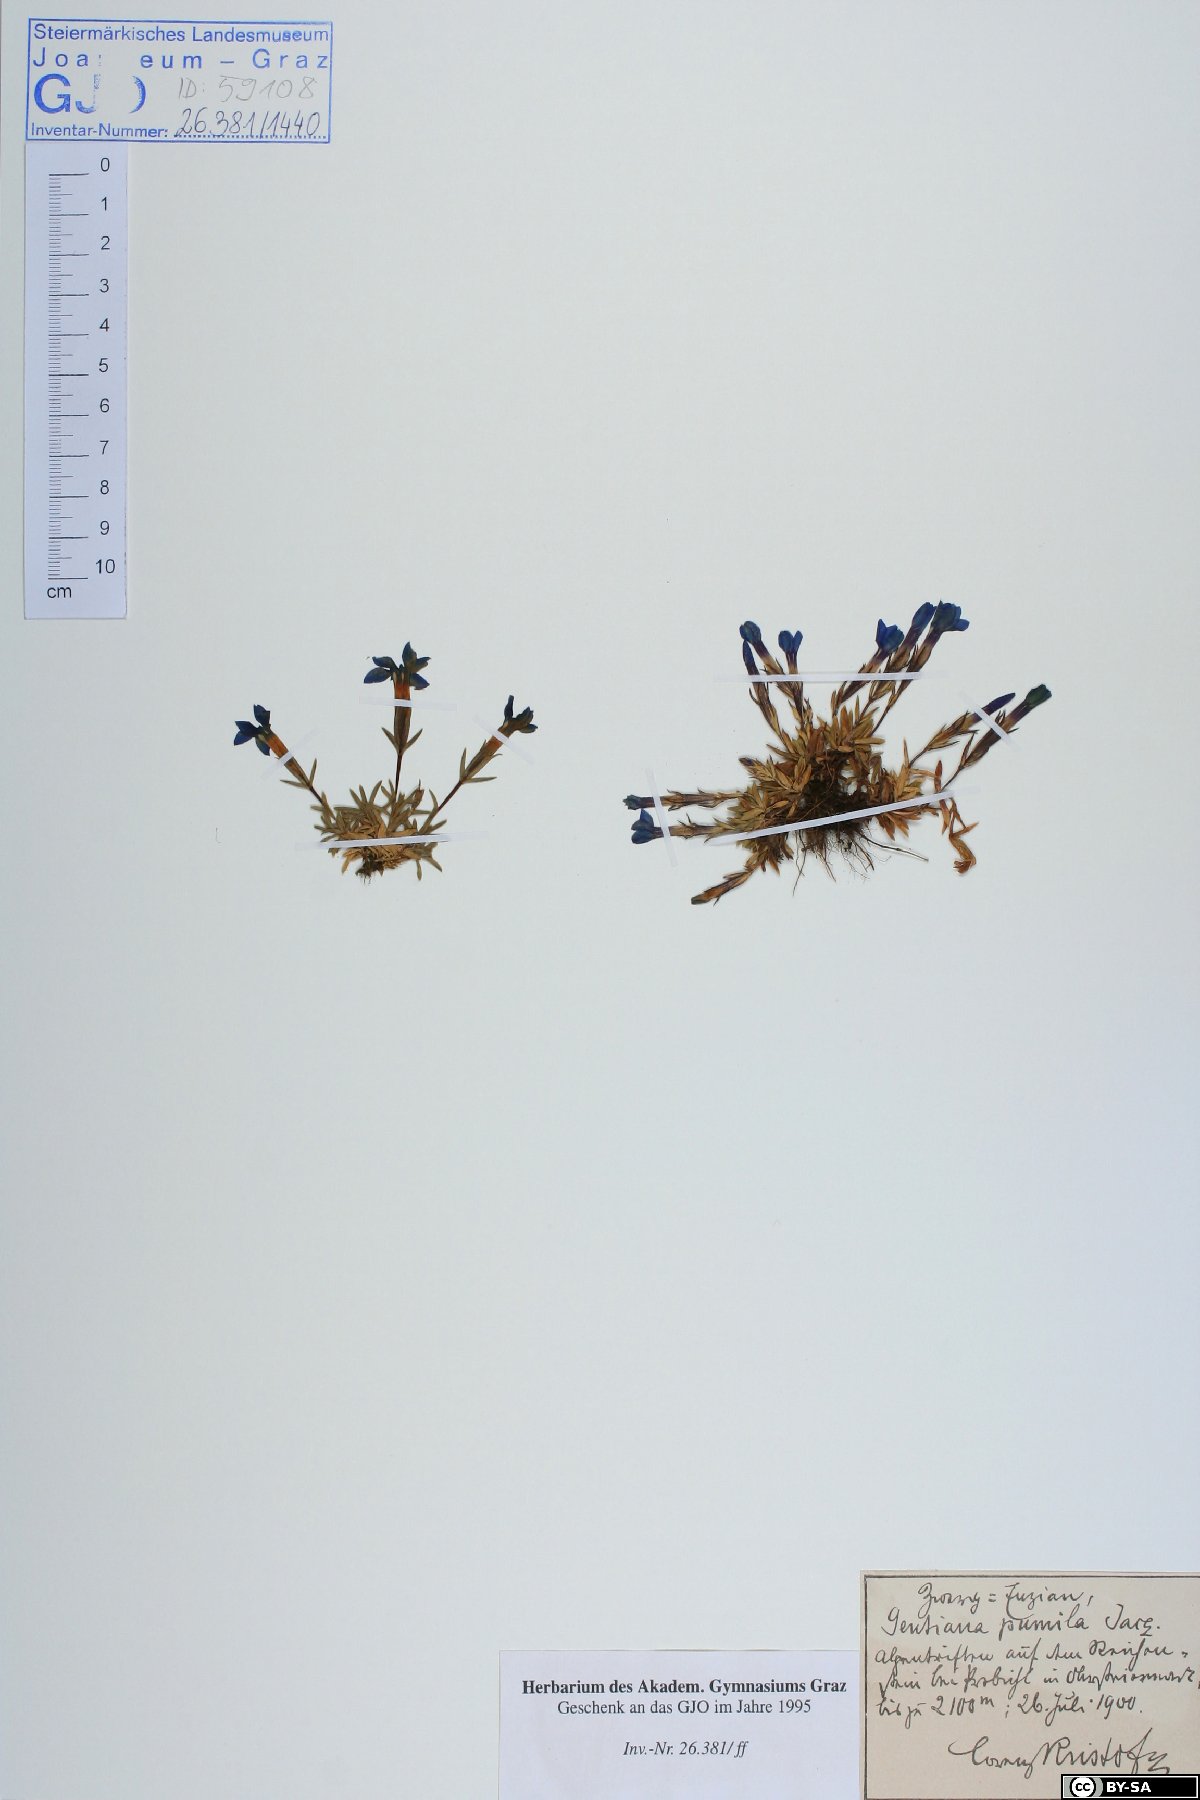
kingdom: Plantae
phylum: Tracheophyta
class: Magnoliopsida
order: Gentianales
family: Gentianaceae
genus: Gentiana
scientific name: Gentiana pumila
